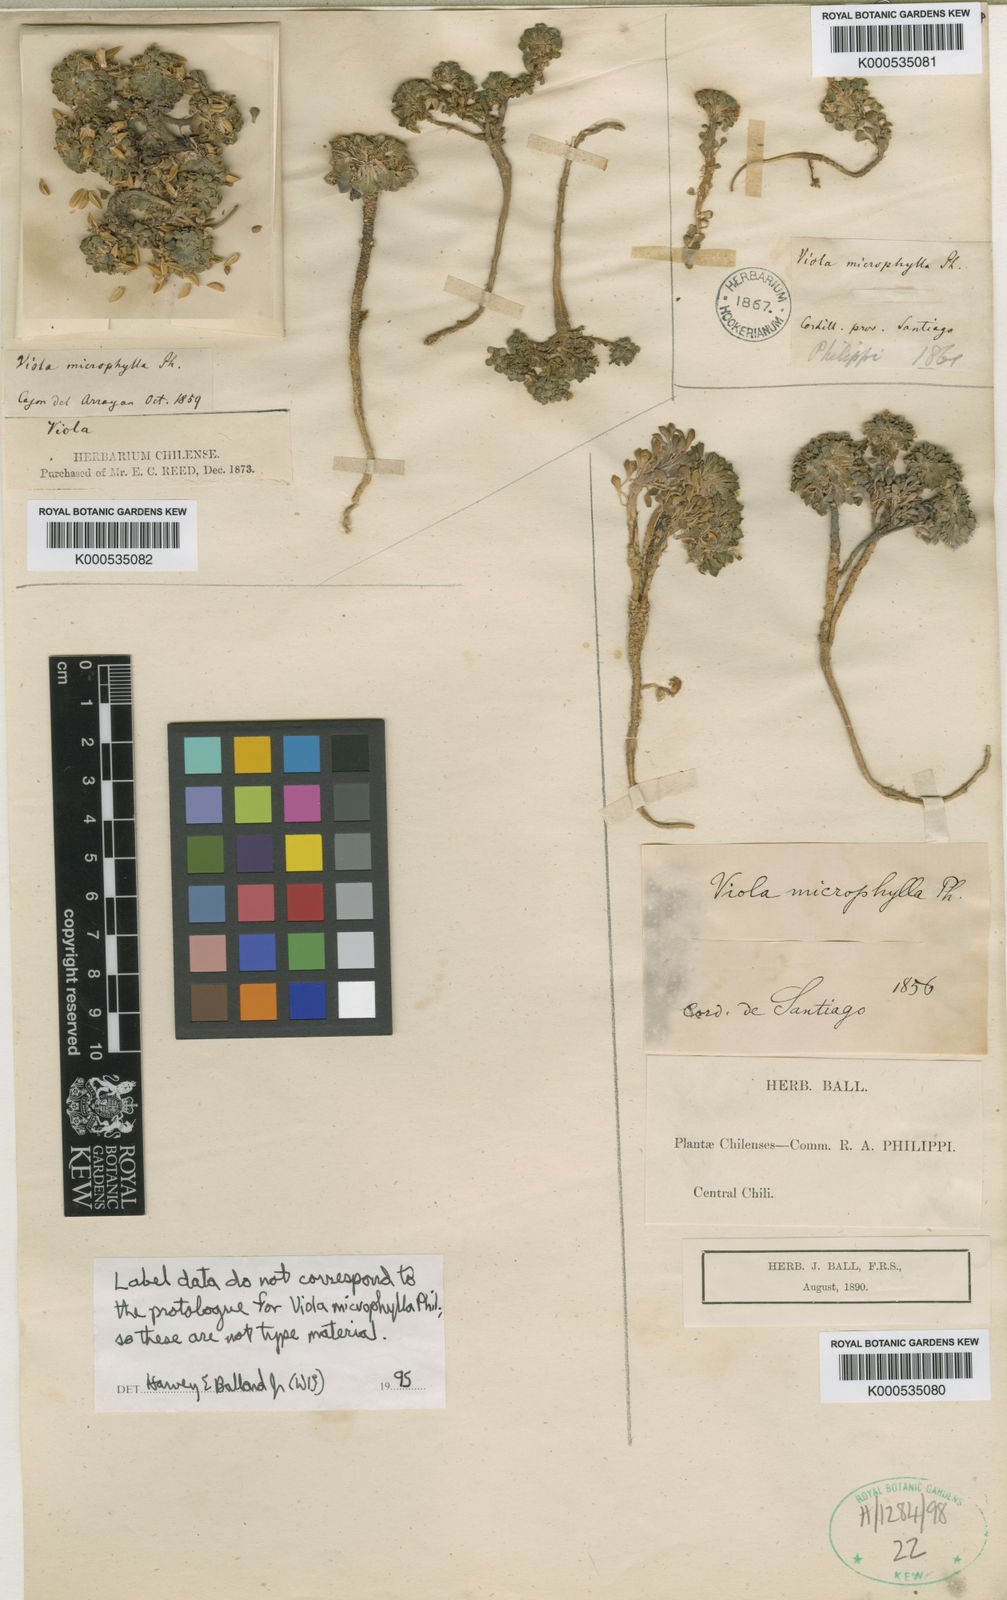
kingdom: Plantae
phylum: Tracheophyta
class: Magnoliopsida
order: Malpighiales
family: Violaceae
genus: Viola
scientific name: Viola philippii
